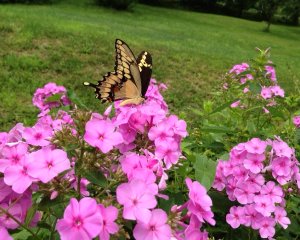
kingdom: Animalia
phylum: Arthropoda
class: Insecta
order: Lepidoptera
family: Papilionidae
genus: Papilio
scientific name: Papilio cresphontes
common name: Eastern Giant Swallowtail
